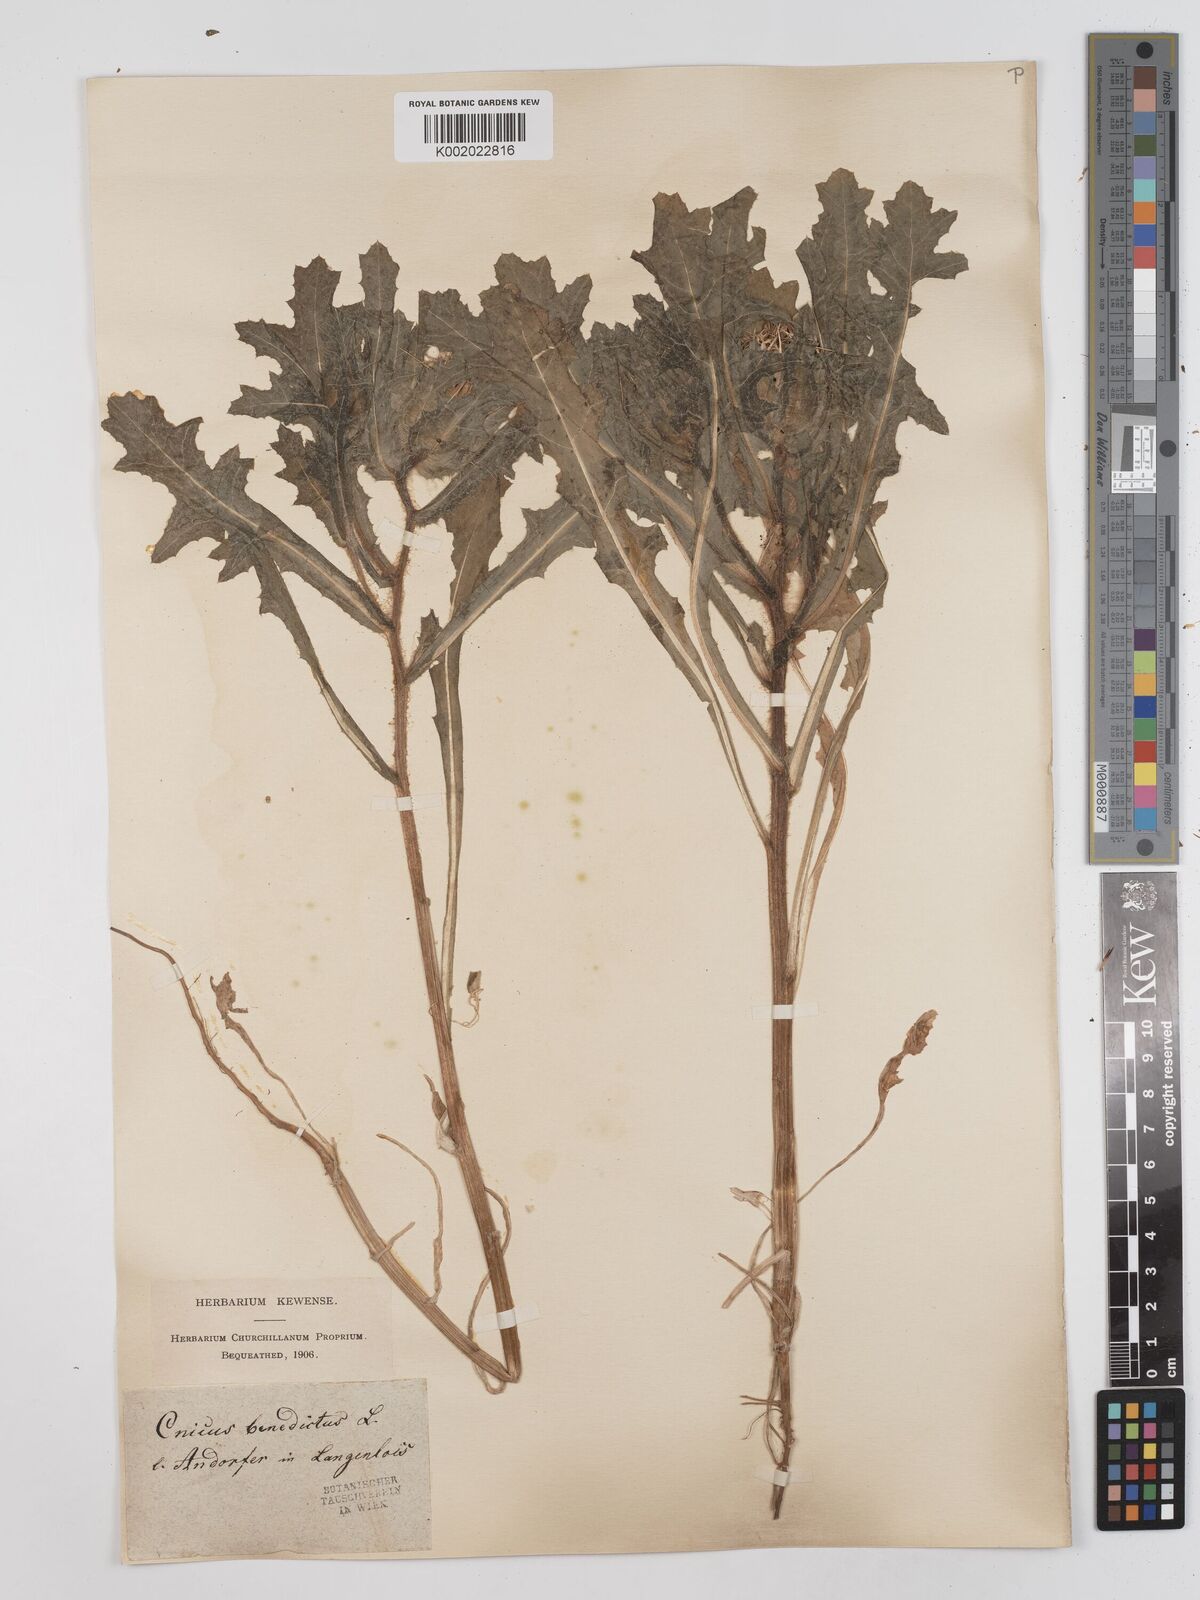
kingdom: Plantae
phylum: Tracheophyta
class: Magnoliopsida
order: Asterales
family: Asteraceae
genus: Centaurea
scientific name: Centaurea benedicta
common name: Blessed thistle
